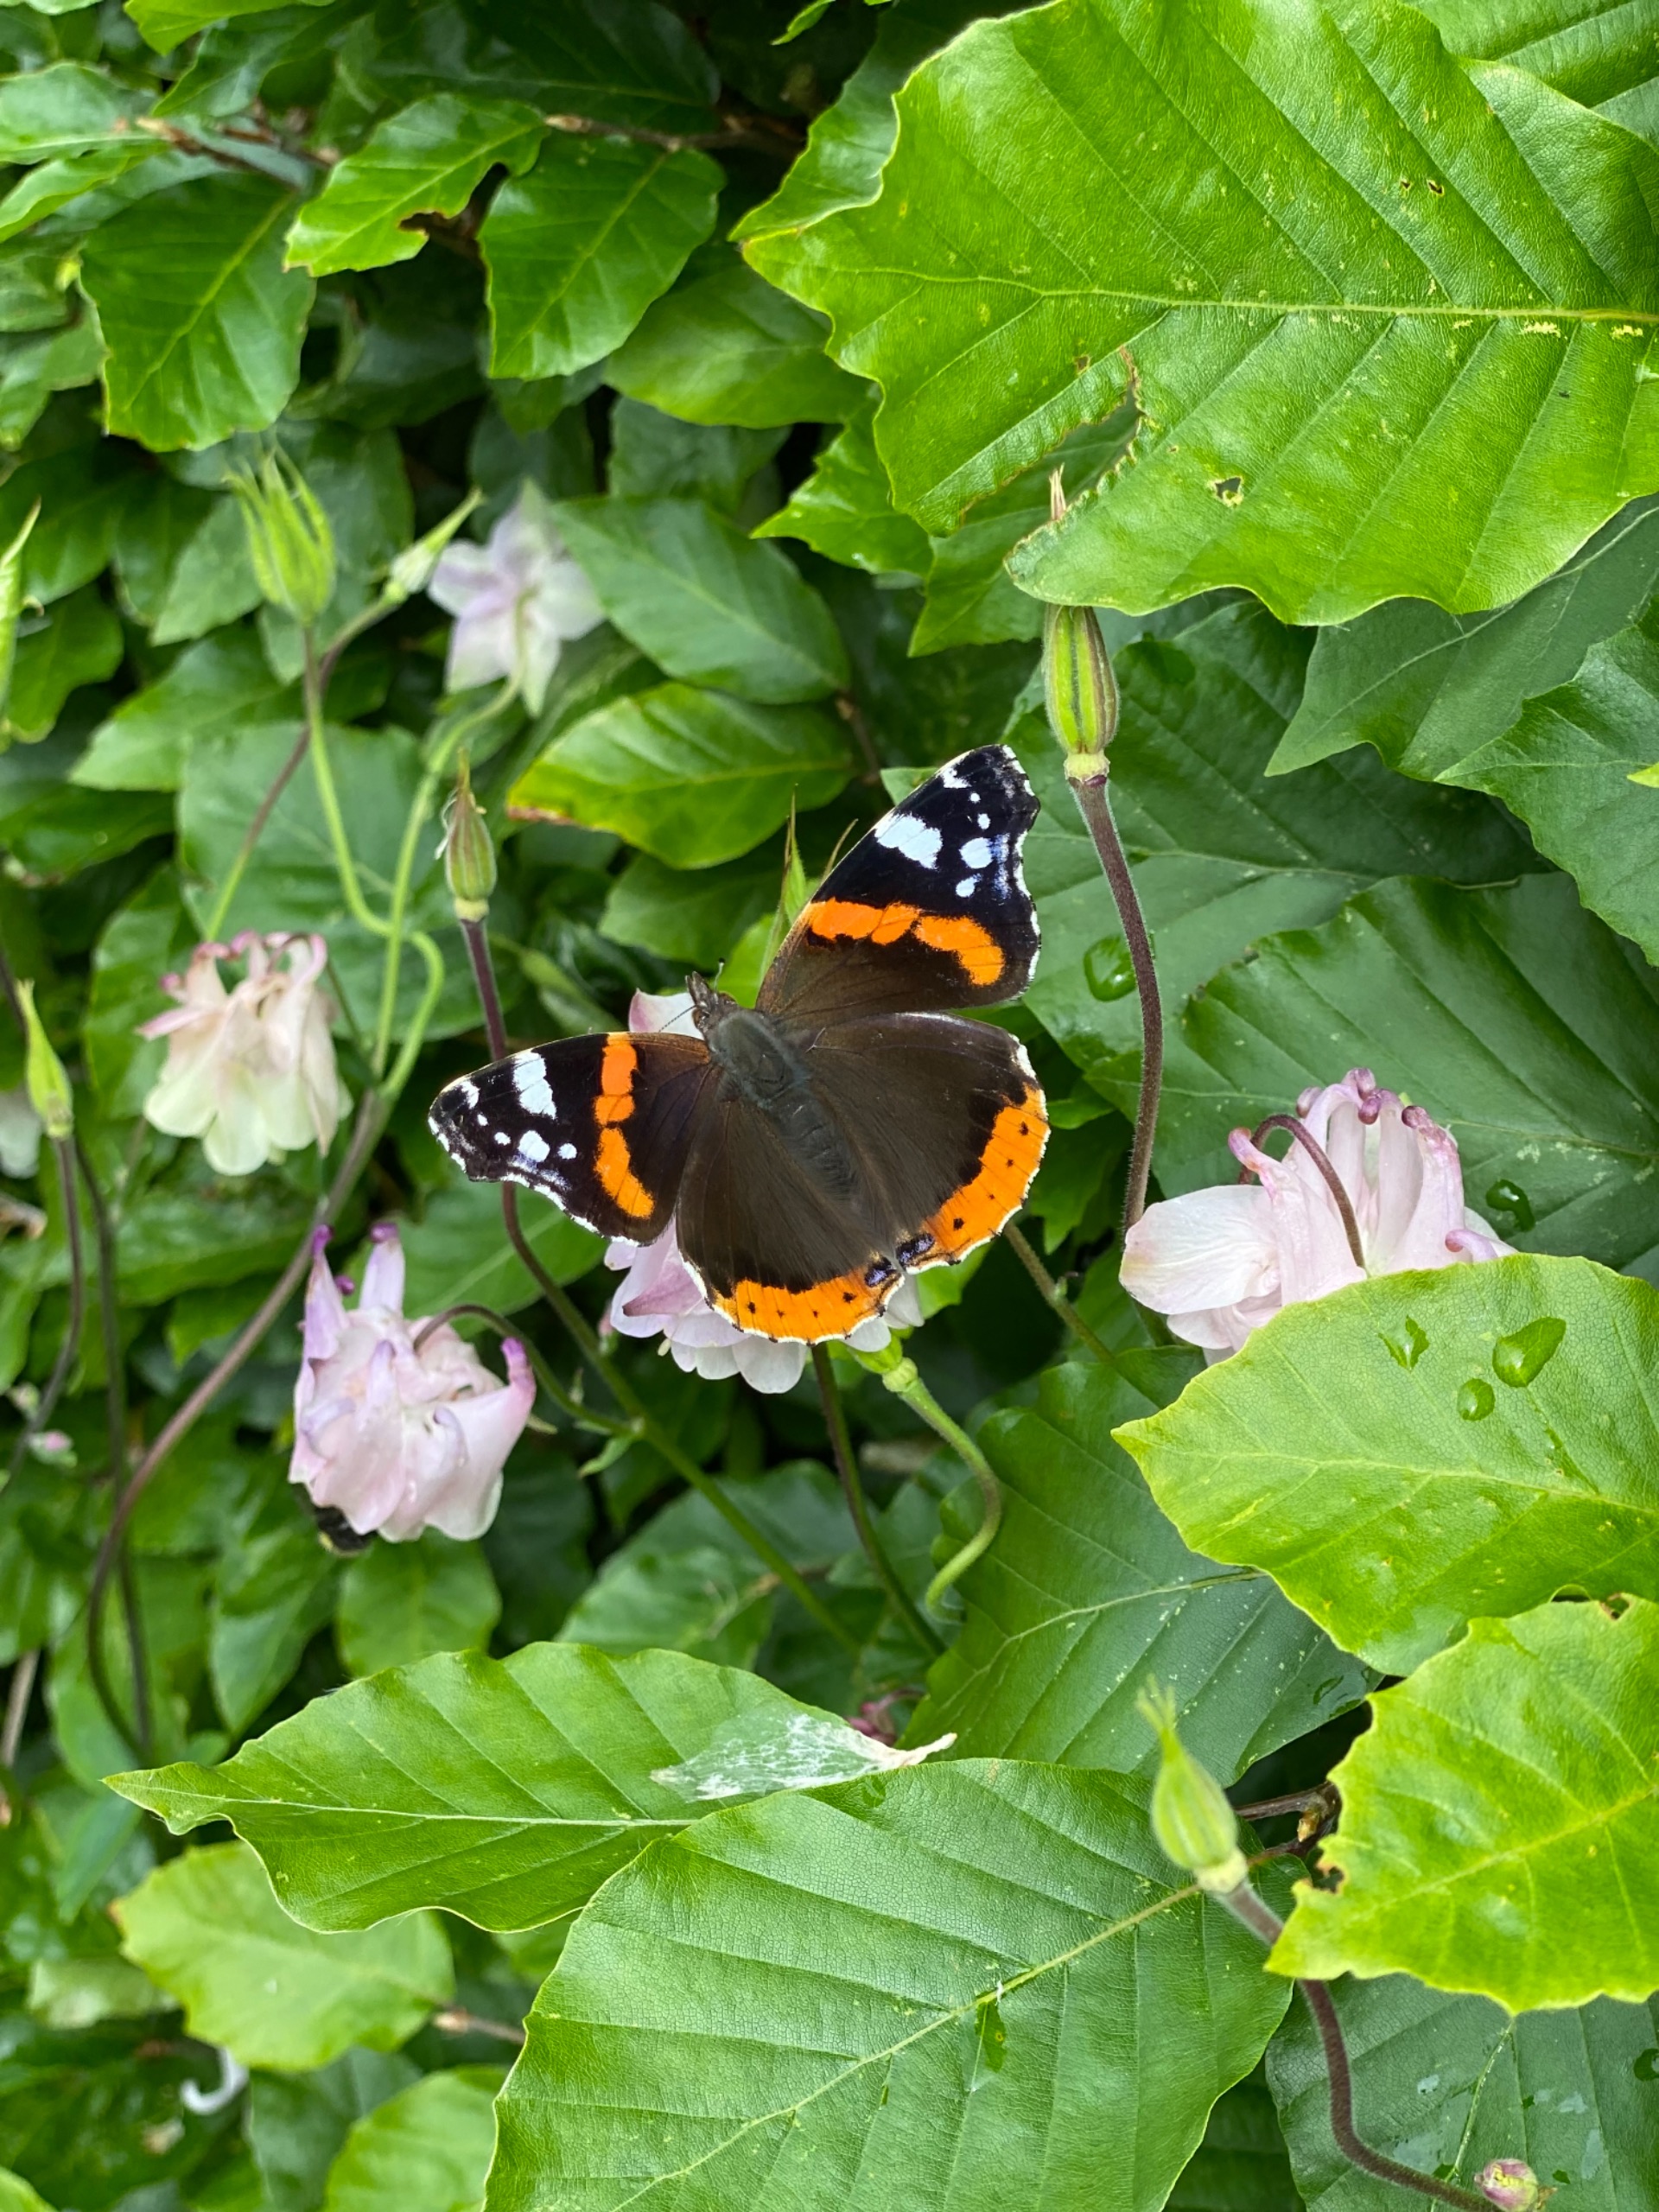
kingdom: Animalia
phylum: Arthropoda
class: Insecta
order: Lepidoptera
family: Nymphalidae
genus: Vanessa
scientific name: Vanessa atalanta
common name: Admiral
